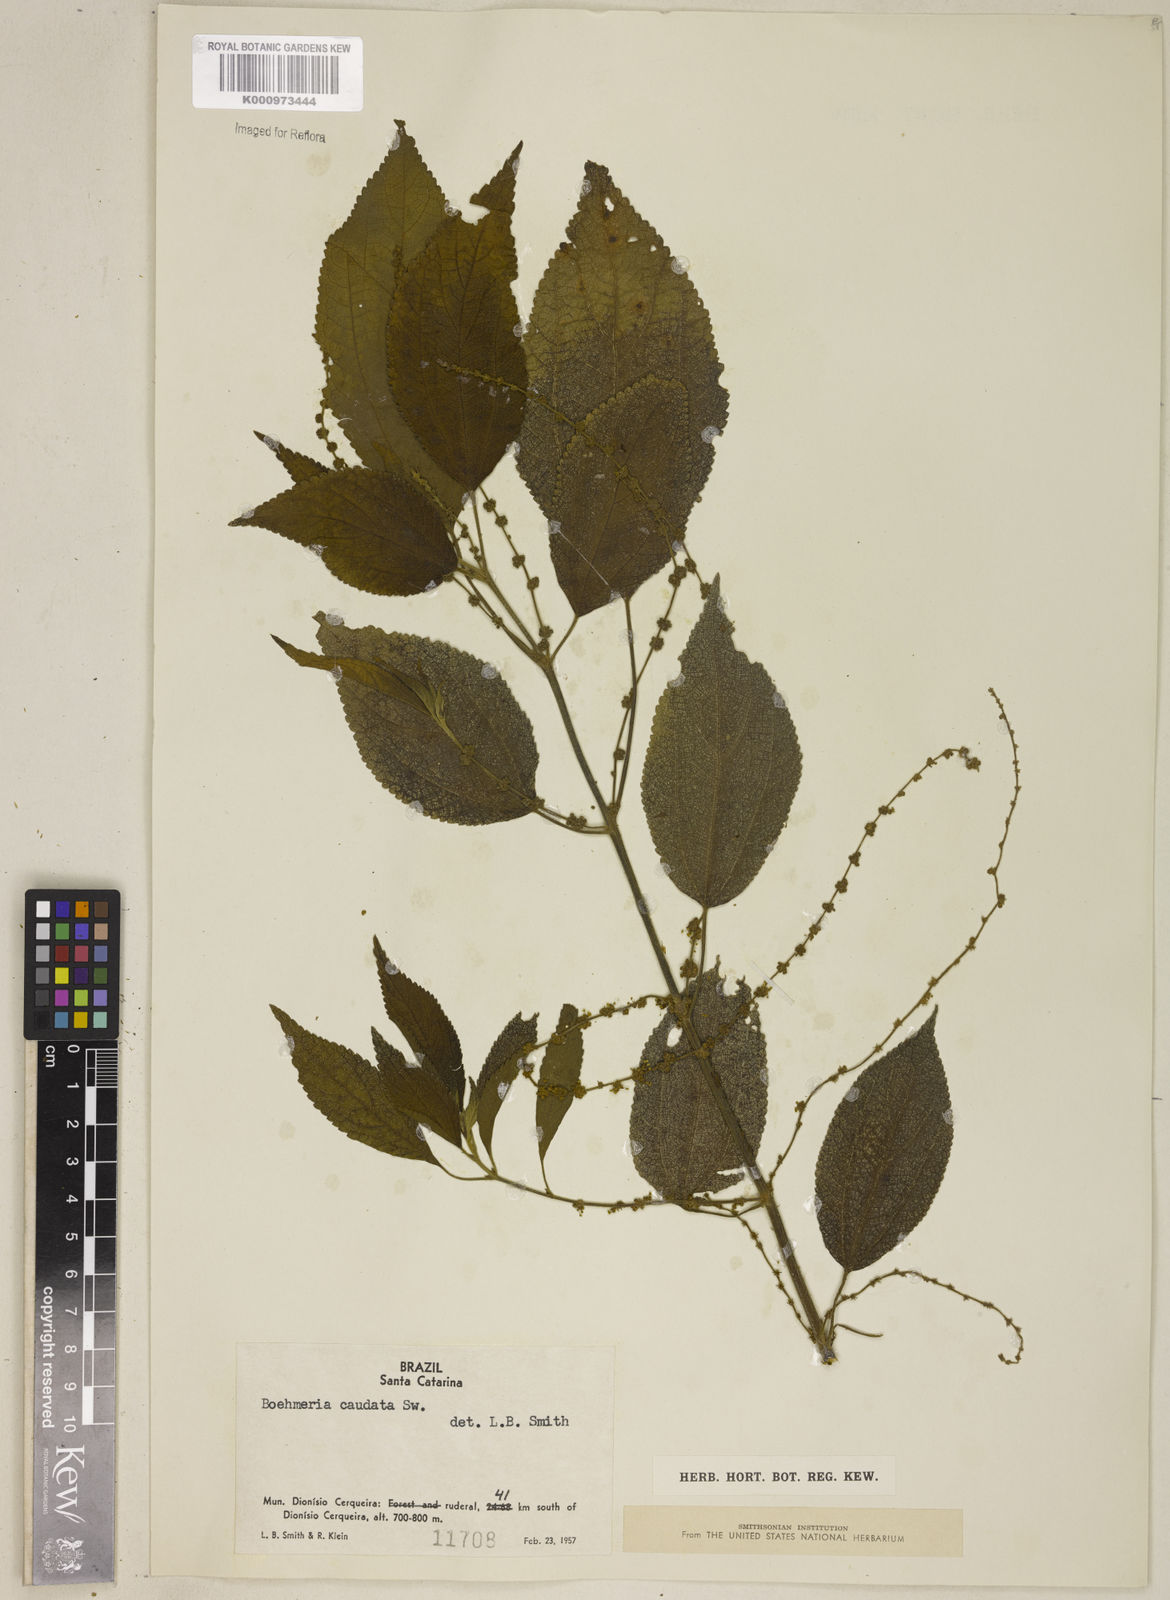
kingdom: Plantae
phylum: Tracheophyta
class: Magnoliopsida
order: Rosales
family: Urticaceae
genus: Boehmeria
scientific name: Boehmeria caudata
